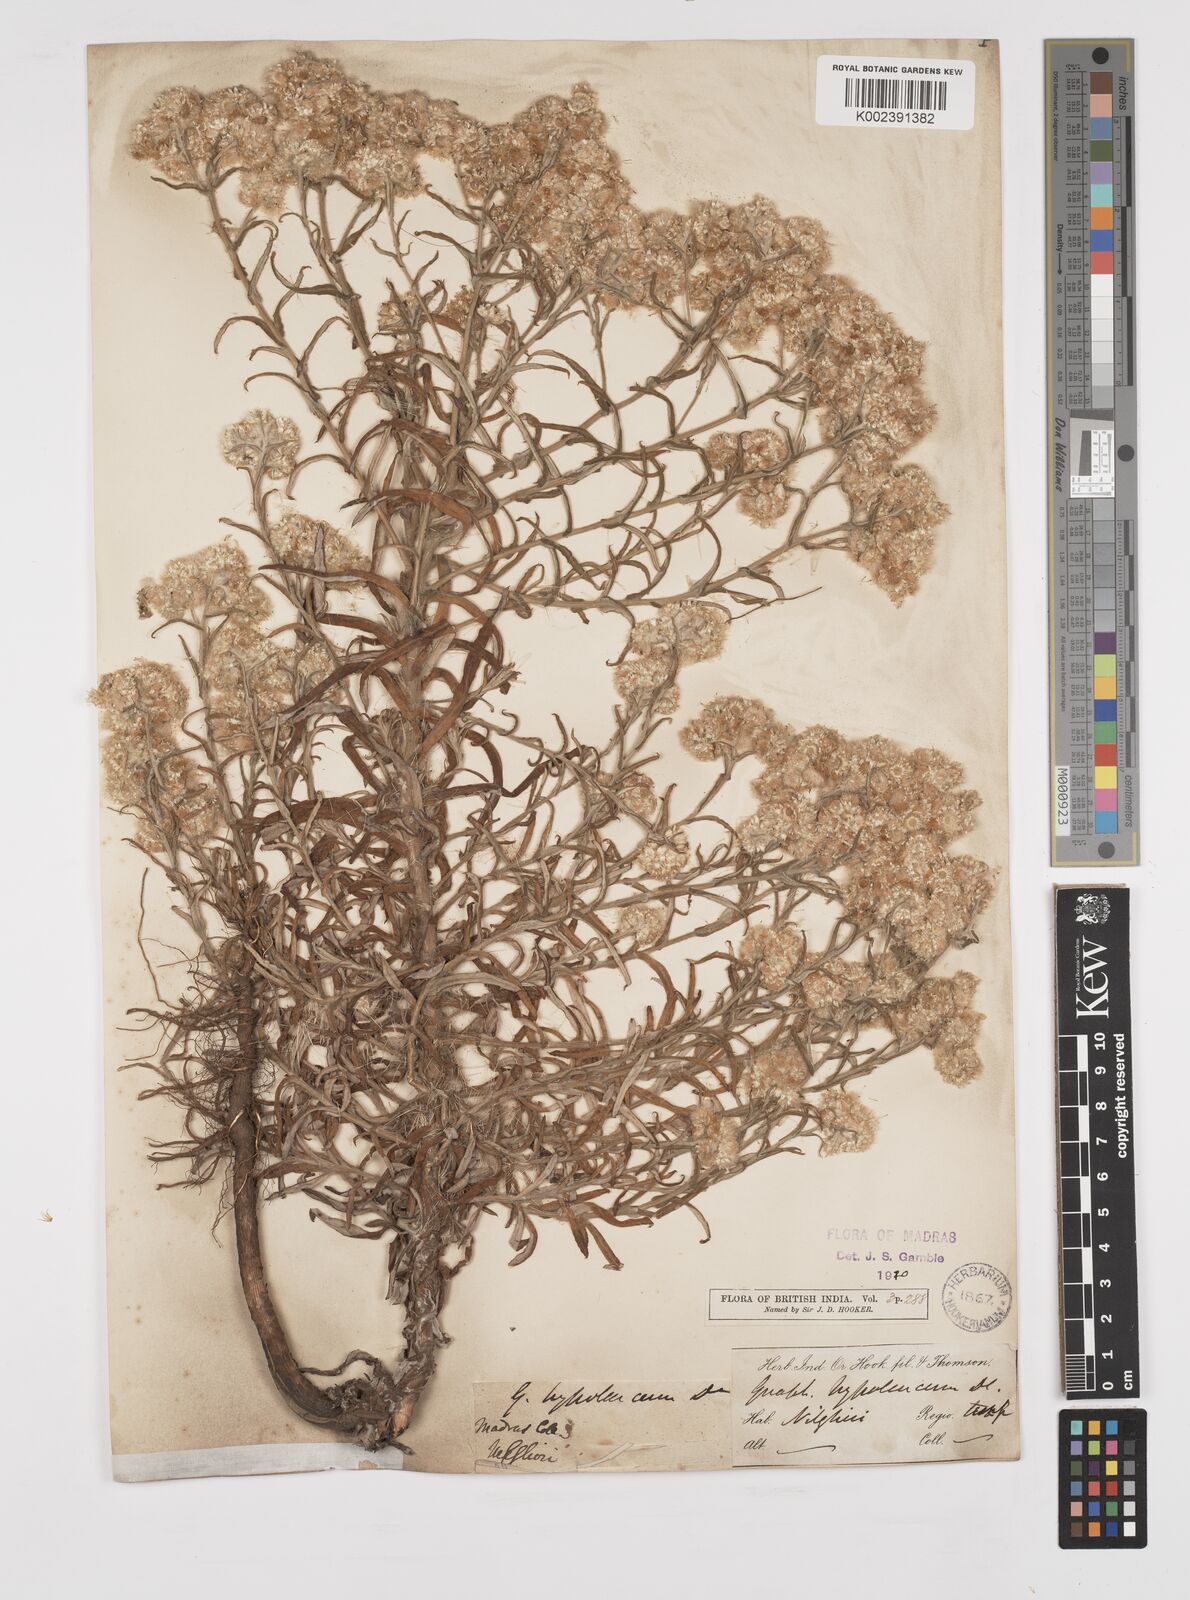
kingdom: Plantae
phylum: Tracheophyta
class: Magnoliopsida
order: Asterales
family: Asteraceae
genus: Pseudognaphalium
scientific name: Pseudognaphalium hypoleucum
